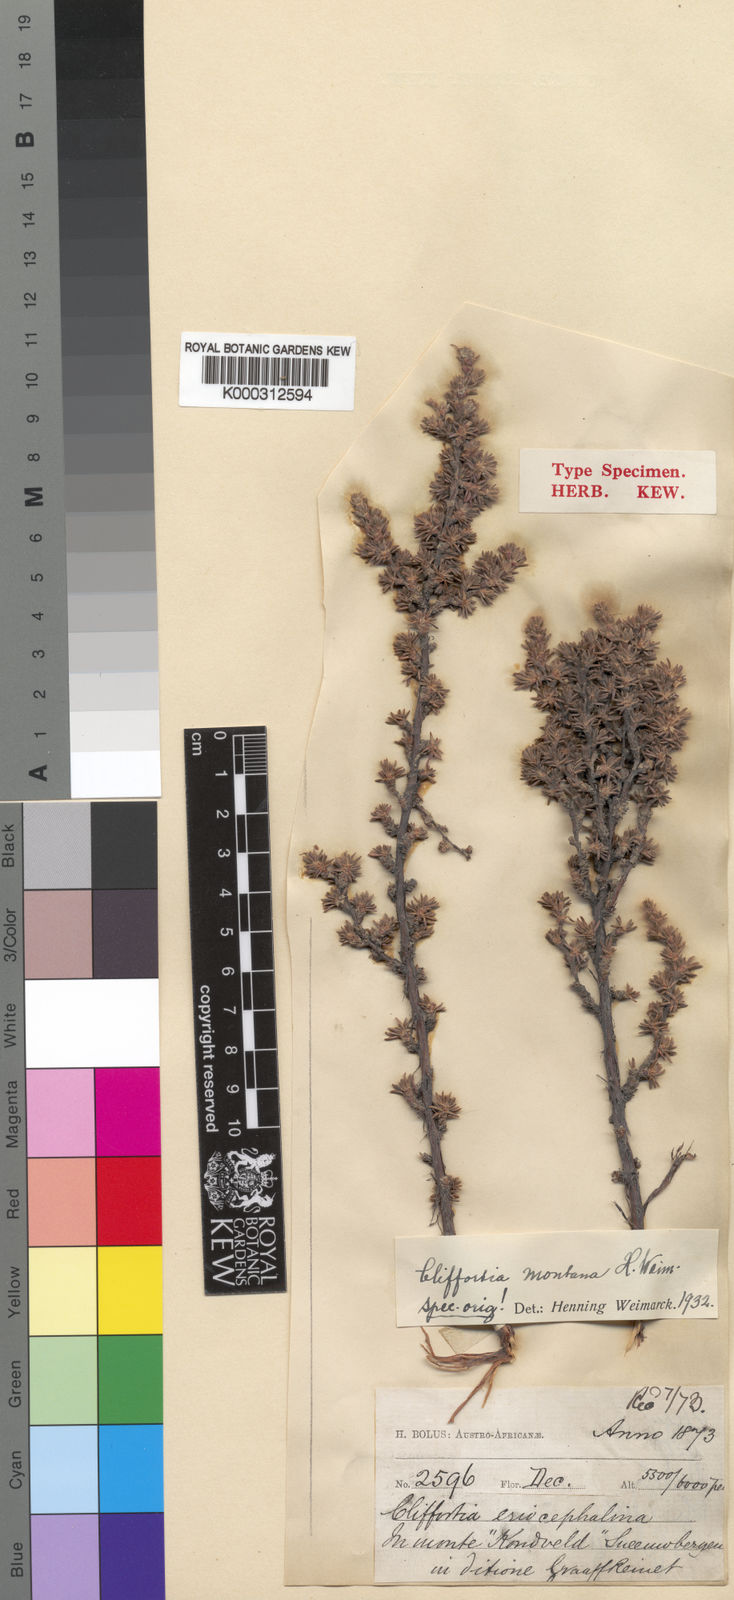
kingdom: Plantae
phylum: Tracheophyta
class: Magnoliopsida
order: Rosales
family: Rosaceae
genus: Cliffortia
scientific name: Cliffortia eriocephalina
